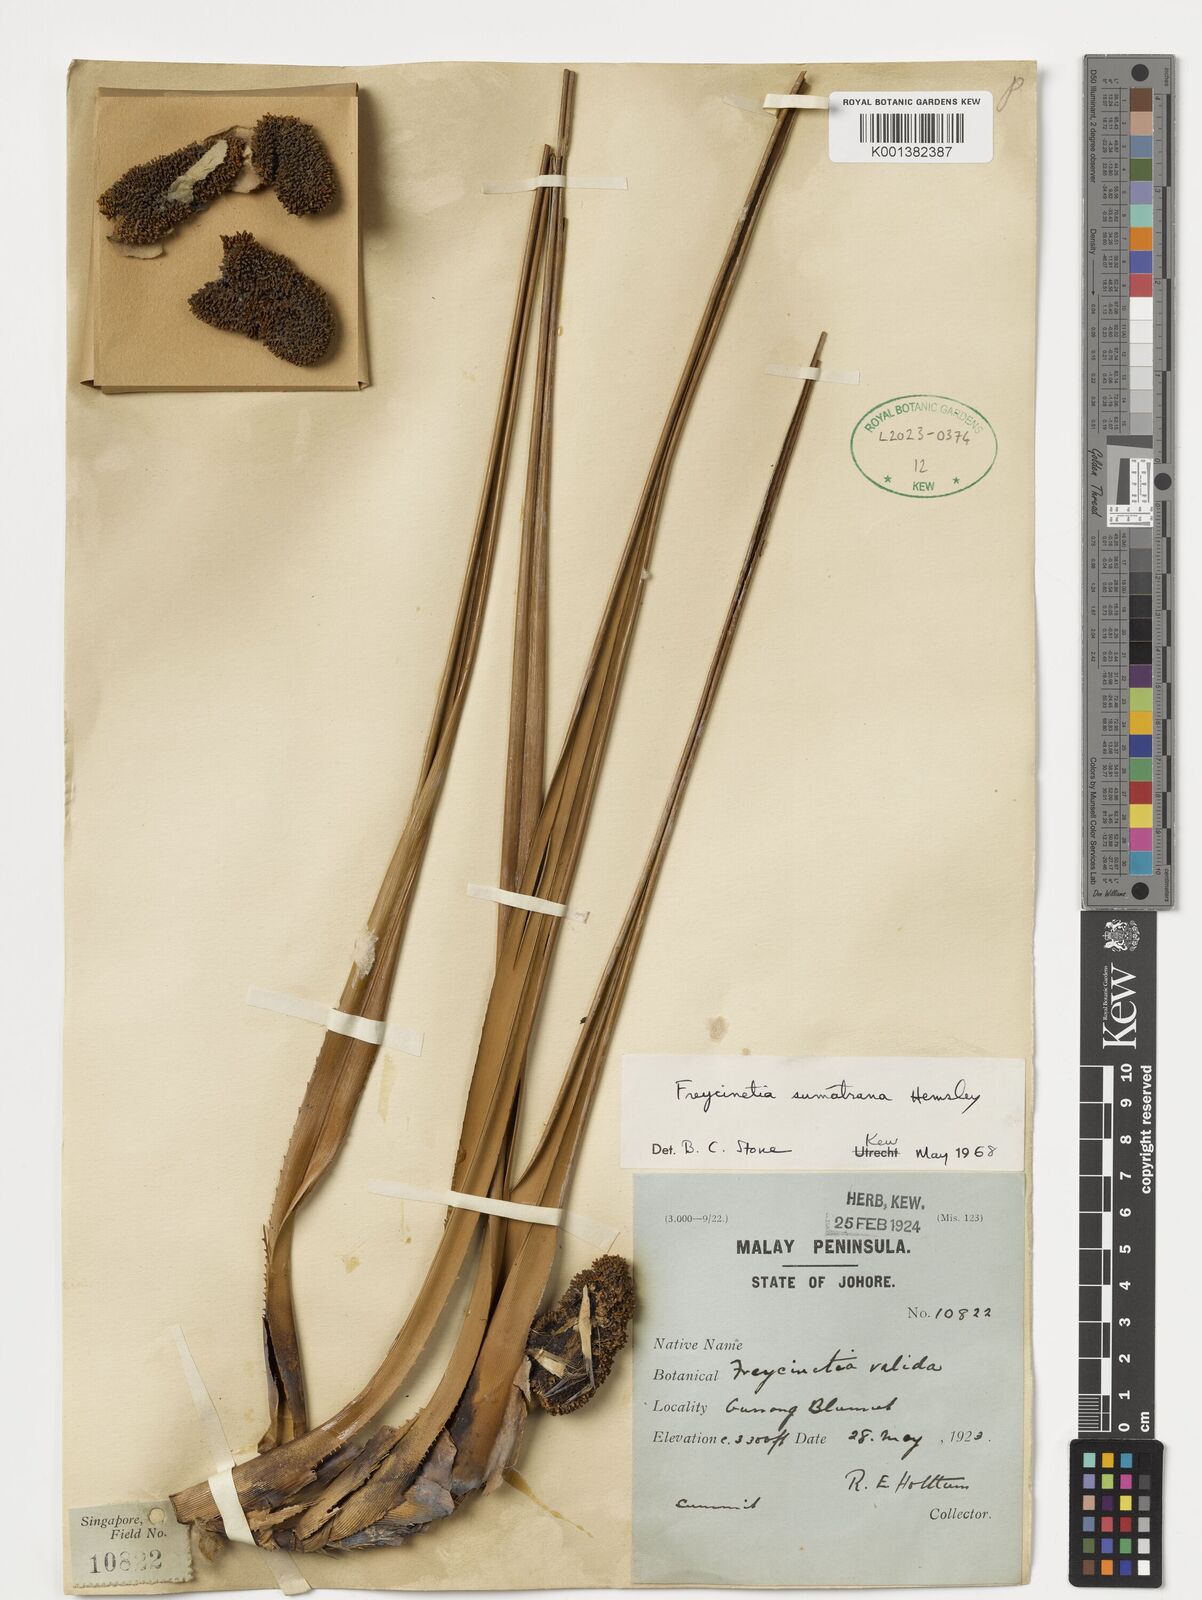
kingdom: Plantae
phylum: Tracheophyta
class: Liliopsida
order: Pandanales
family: Pandanaceae
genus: Freycinetia
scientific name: Freycinetia sumatrana
